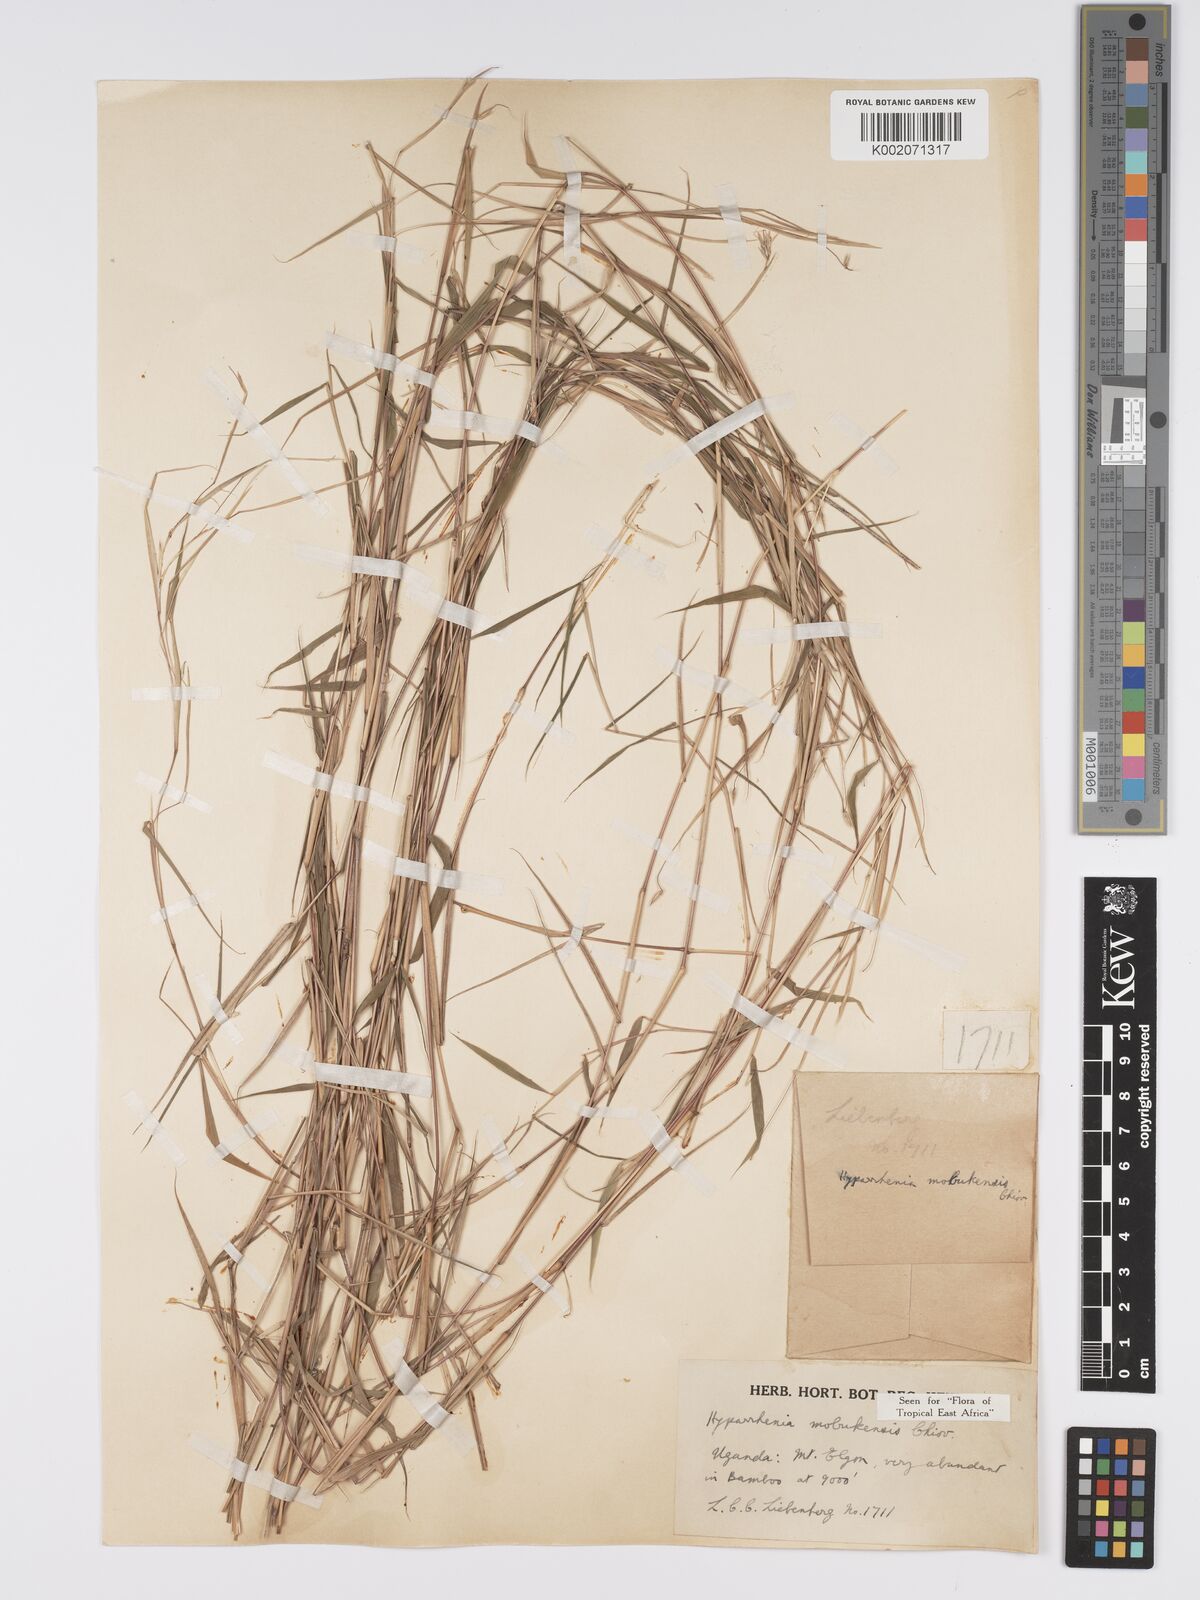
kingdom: Plantae
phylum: Tracheophyta
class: Liliopsida
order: Poales
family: Poaceae
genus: Hyparrhenia
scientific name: Hyparrhenia mobukensis
